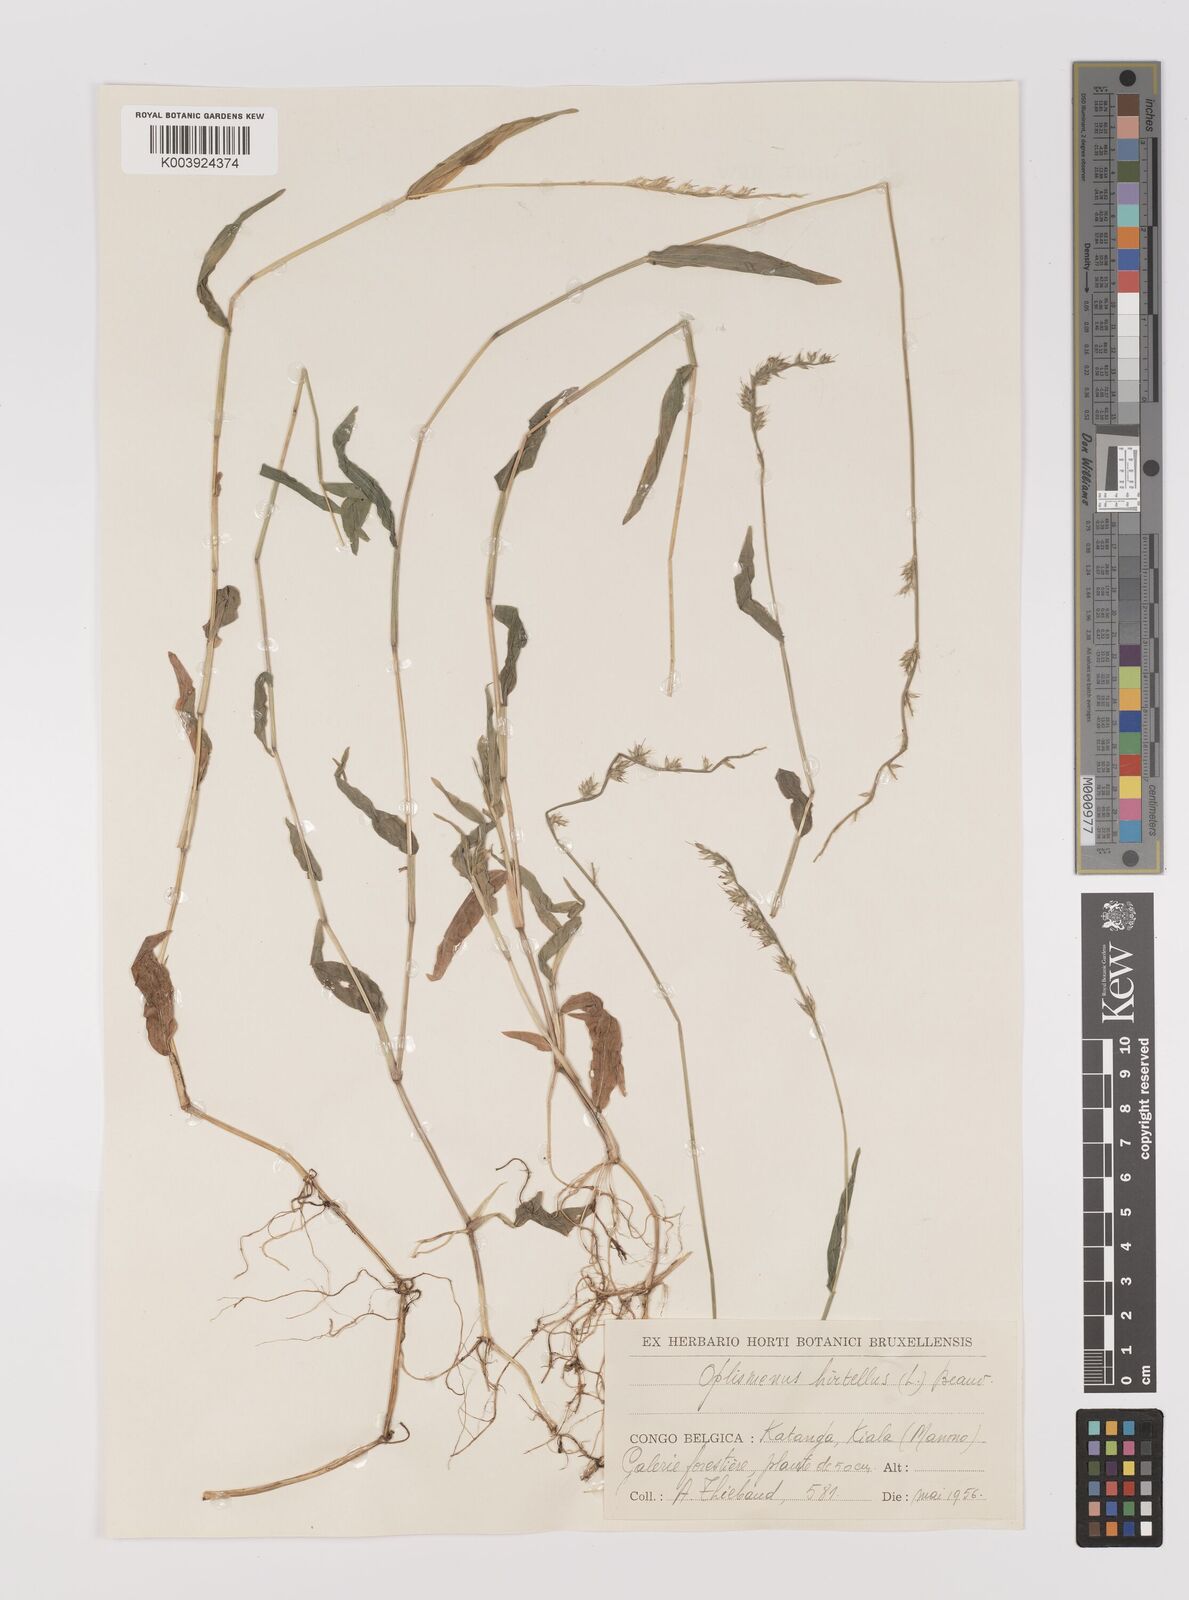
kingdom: Plantae
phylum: Tracheophyta
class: Liliopsida
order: Poales
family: Poaceae
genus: Oplismenus
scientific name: Oplismenus hirtellus
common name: Basketgrass
